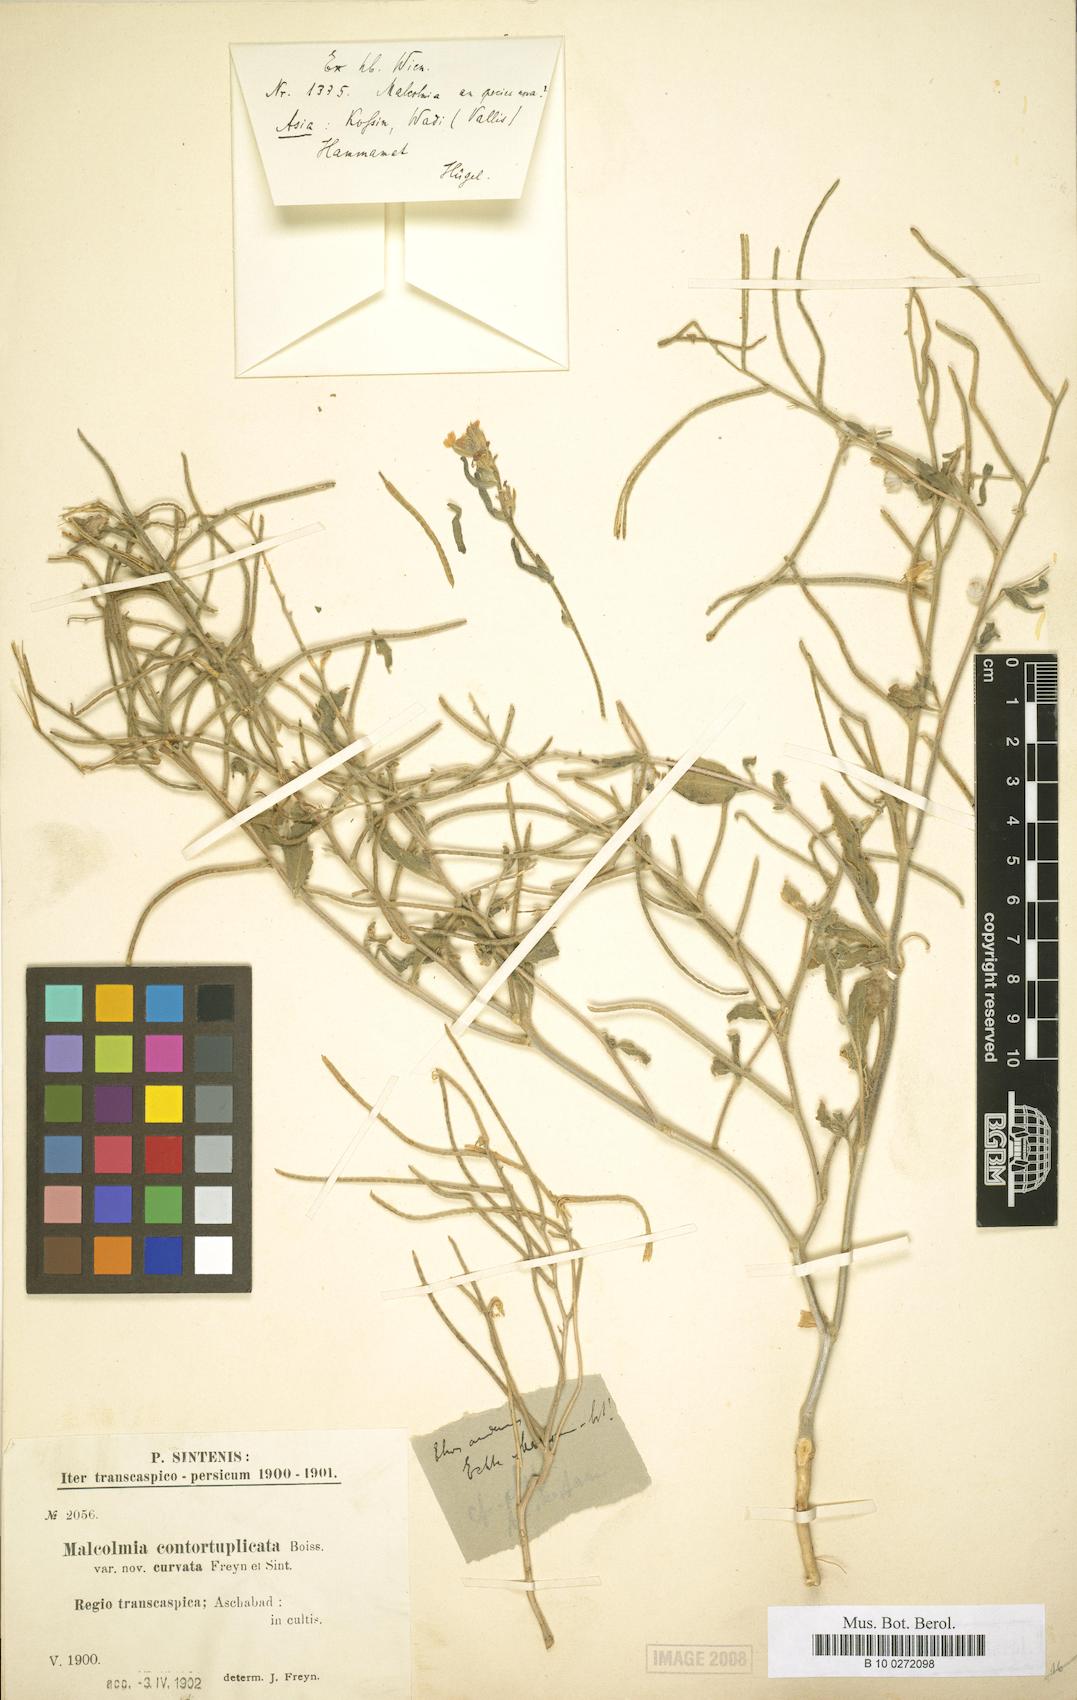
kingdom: Plantae
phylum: Tracheophyta
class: Magnoliopsida
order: Brassicales
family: Brassicaceae
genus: Neotorularia
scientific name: Neotorularia contortuplicata
